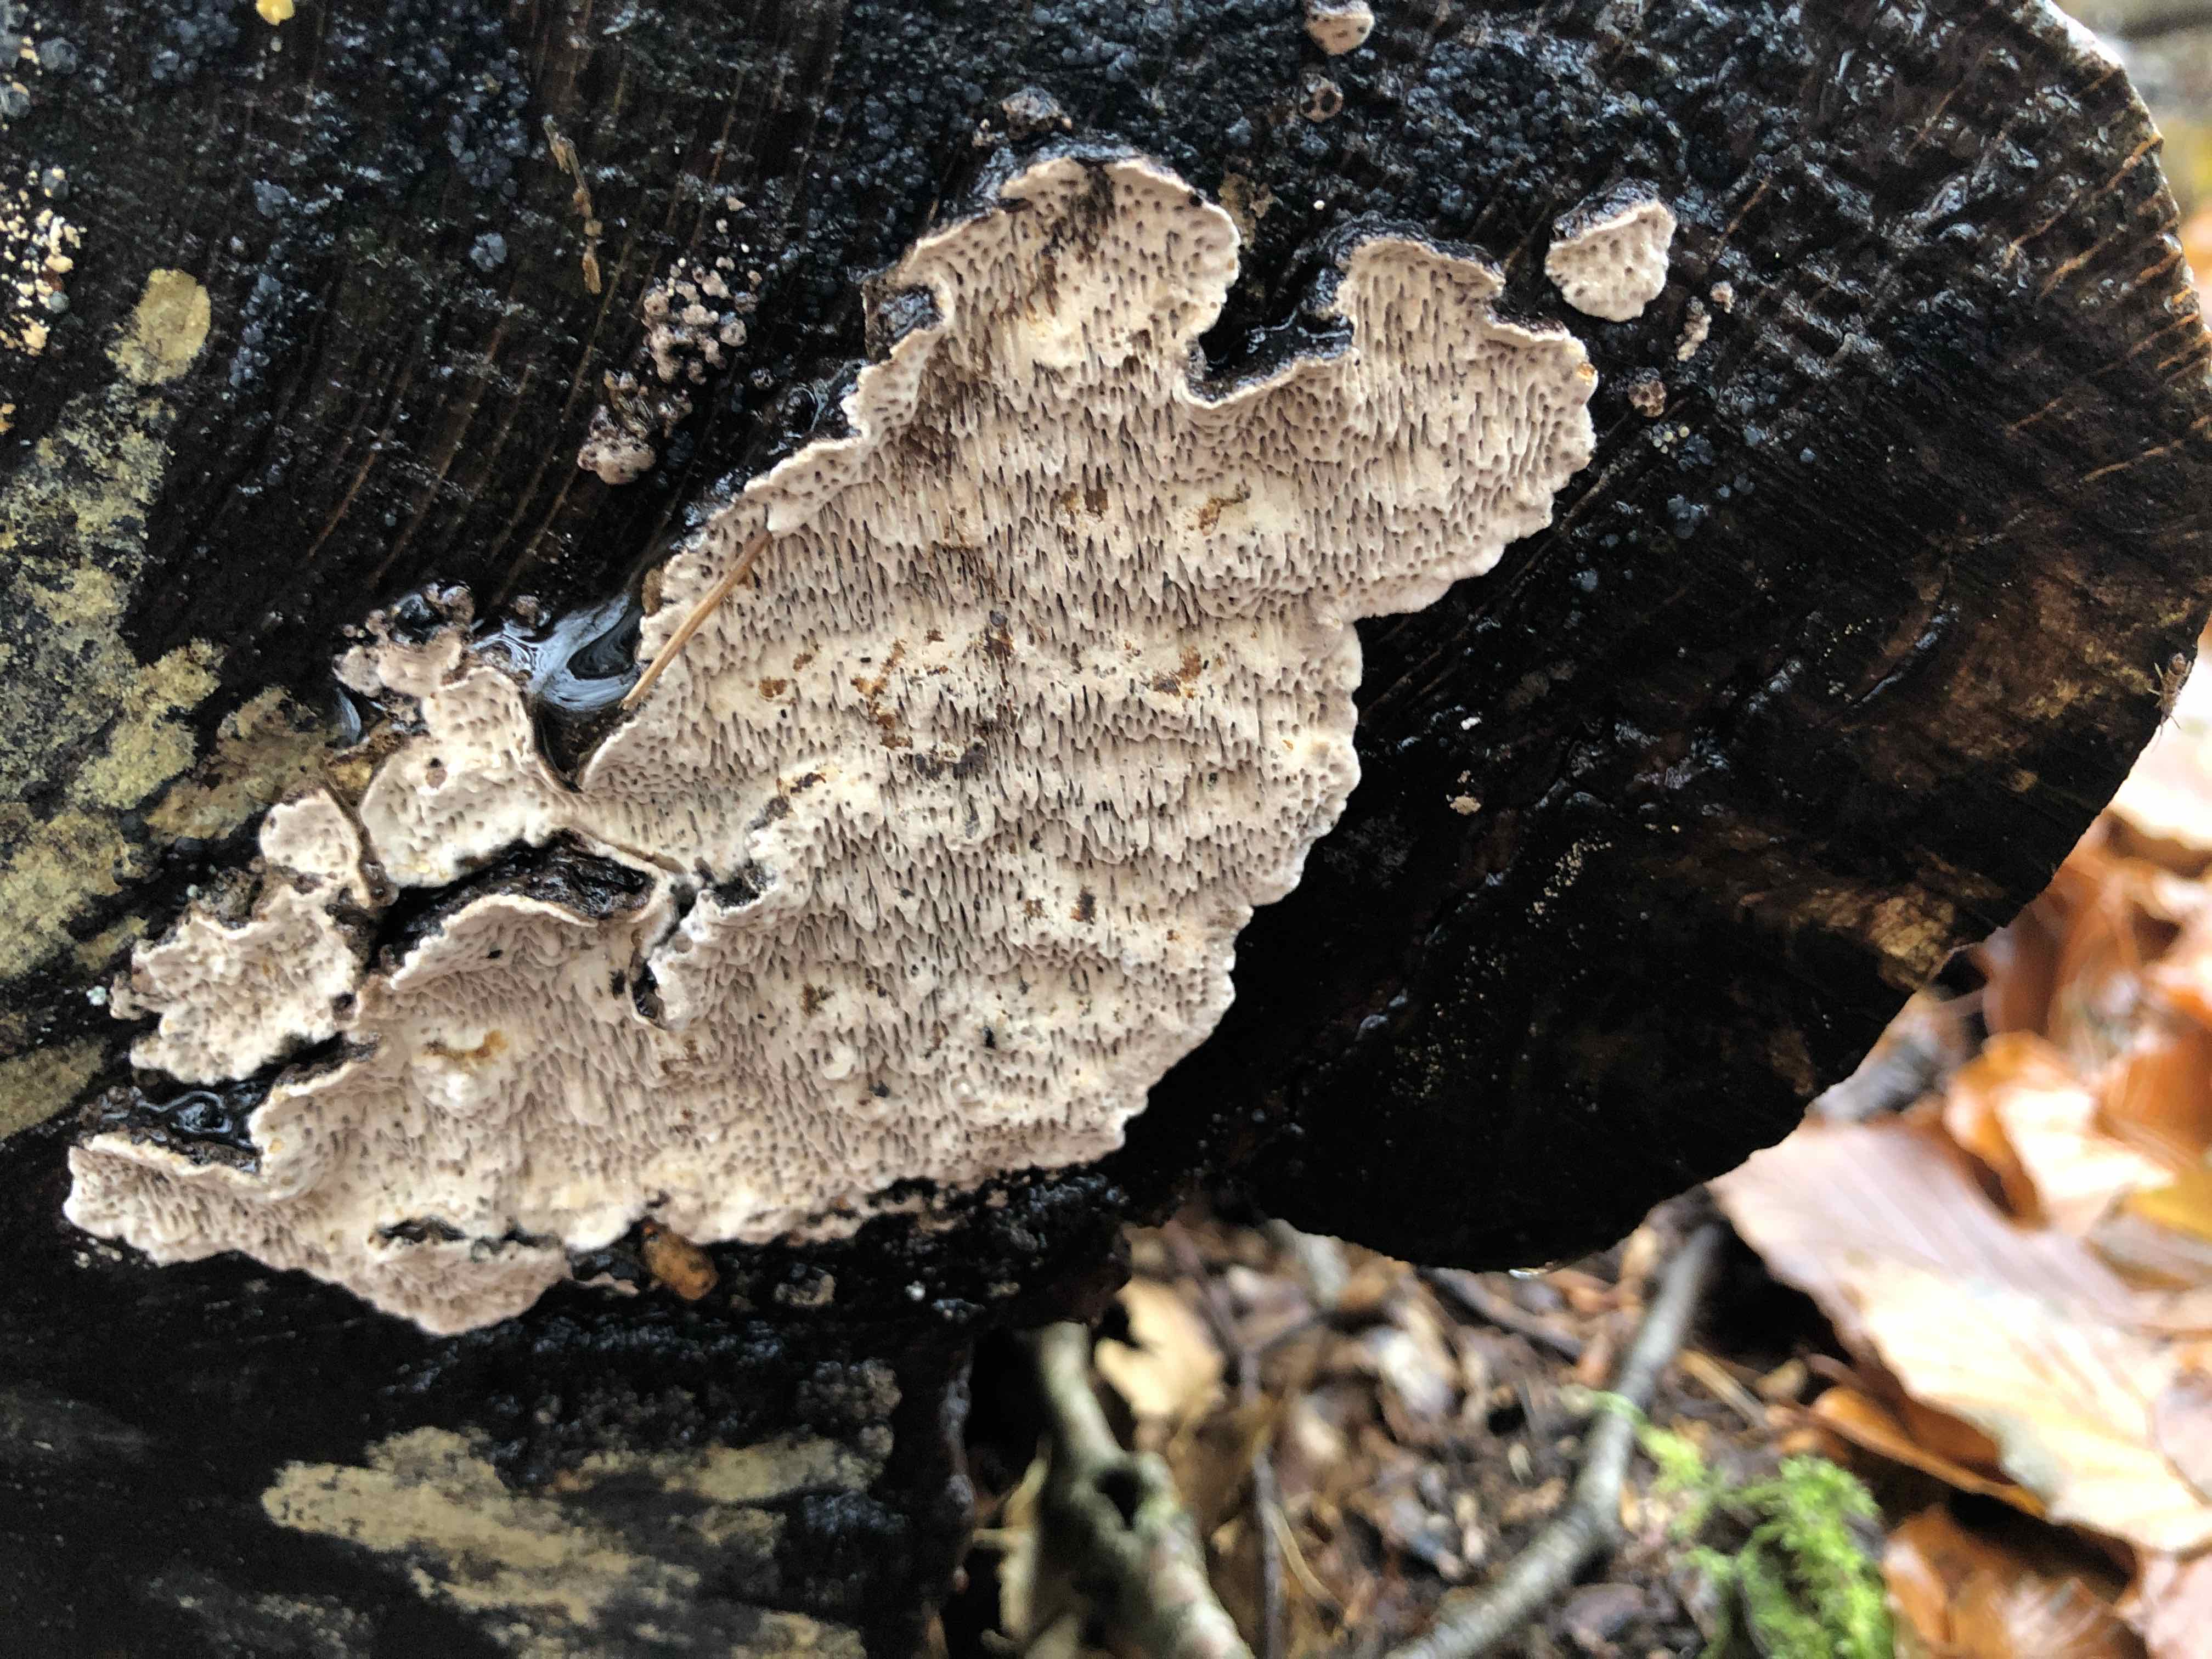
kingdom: Fungi
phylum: Basidiomycota
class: Agaricomycetes
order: Polyporales
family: Polyporaceae
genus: Podofomes
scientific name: Podofomes mollis
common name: blød begporesvamp
